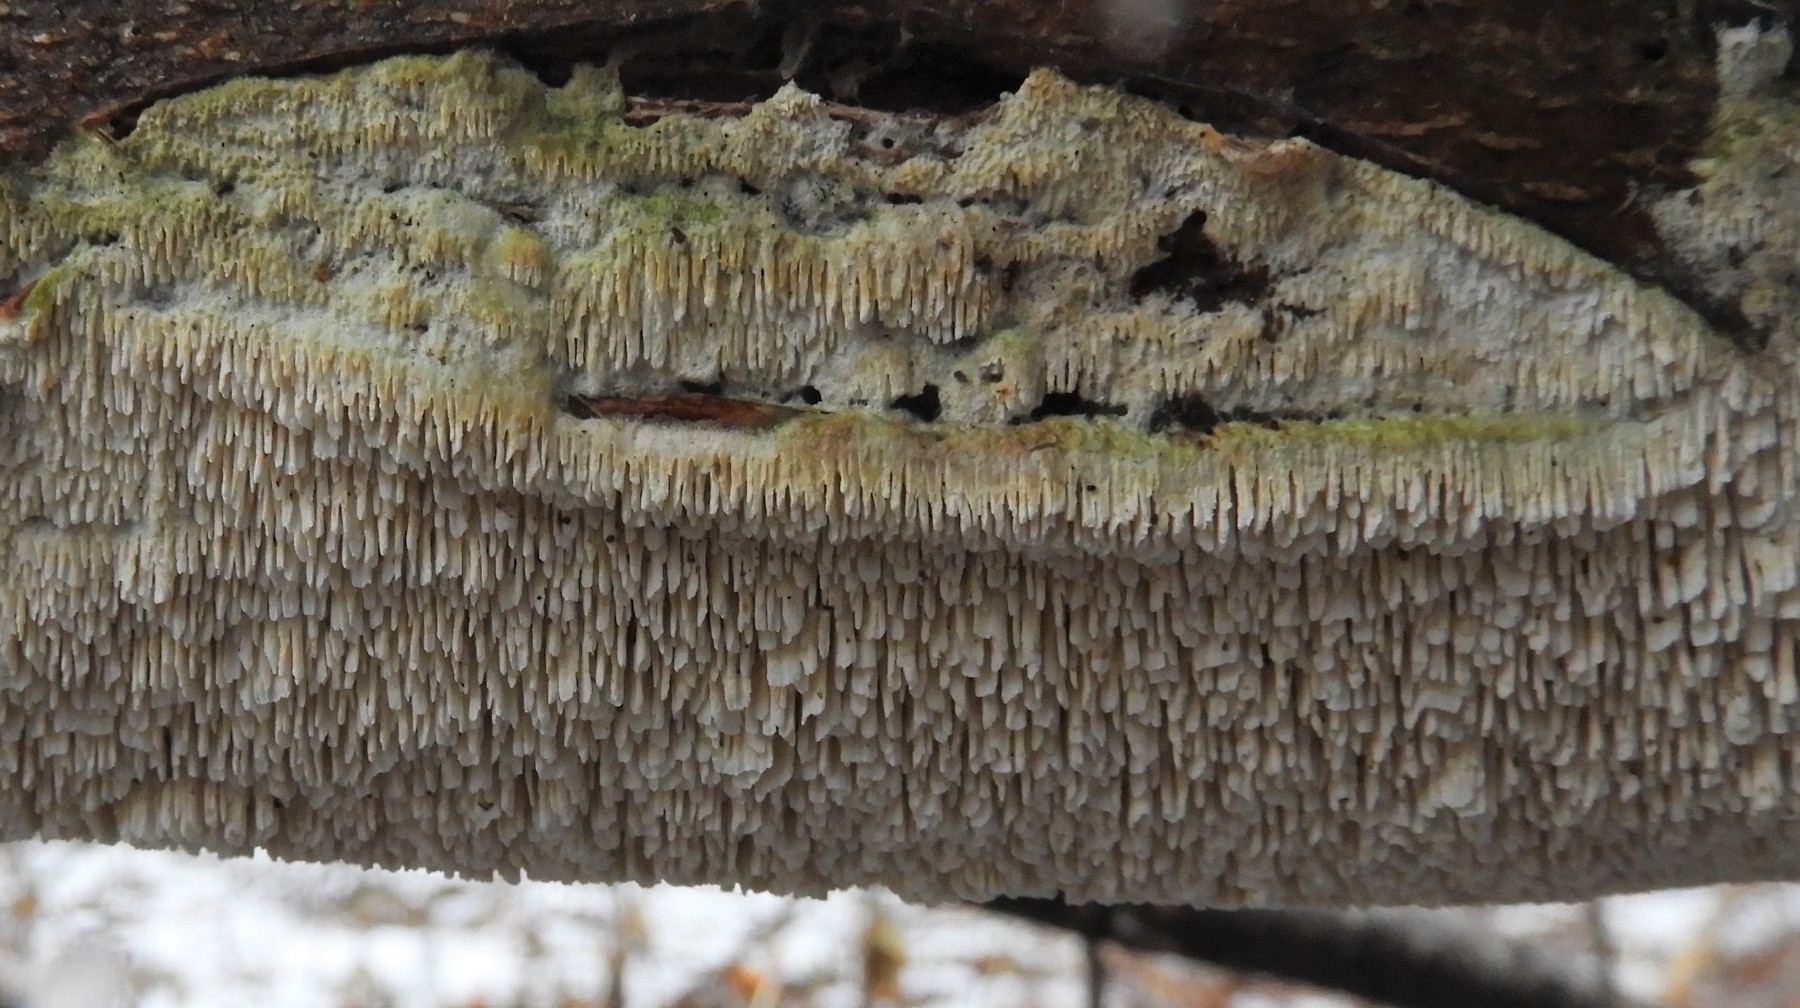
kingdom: Fungi
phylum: Basidiomycota
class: Agaricomycetes
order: Hymenochaetales
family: Schizoporaceae
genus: Schizopora
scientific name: Schizopora paradoxa
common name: hvid tandsvamp
